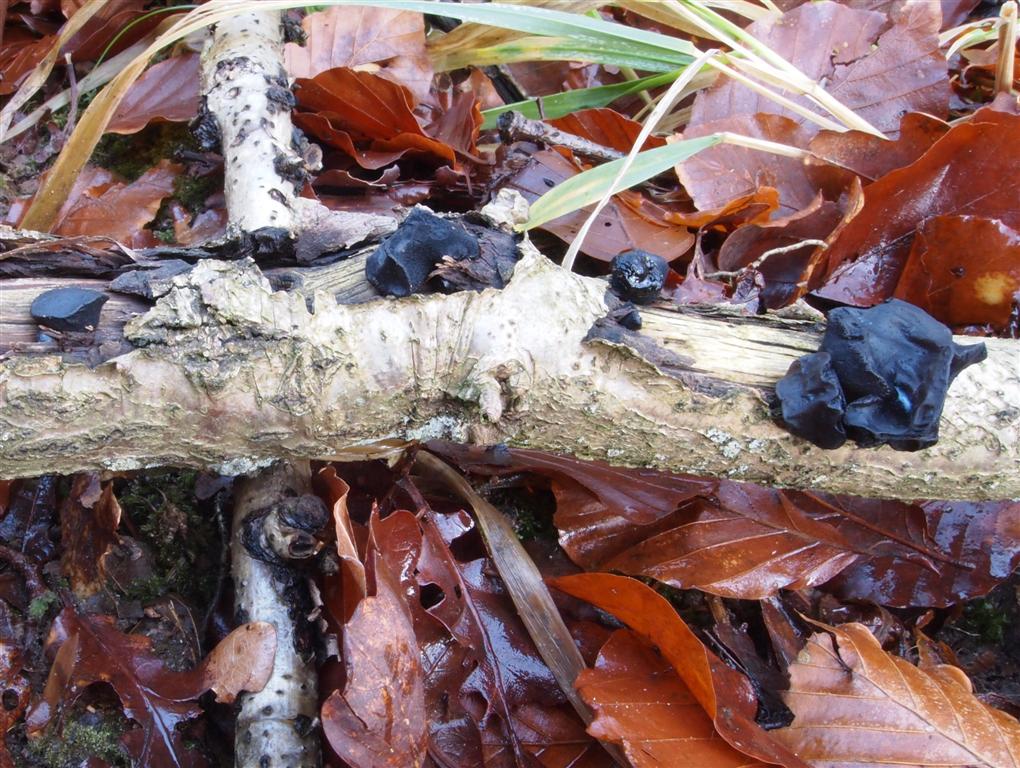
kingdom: Fungi
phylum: Basidiomycota
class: Agaricomycetes
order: Auriculariales
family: Auriculariaceae
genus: Exidia
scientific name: Exidia glandulosa
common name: ege-bævretop
